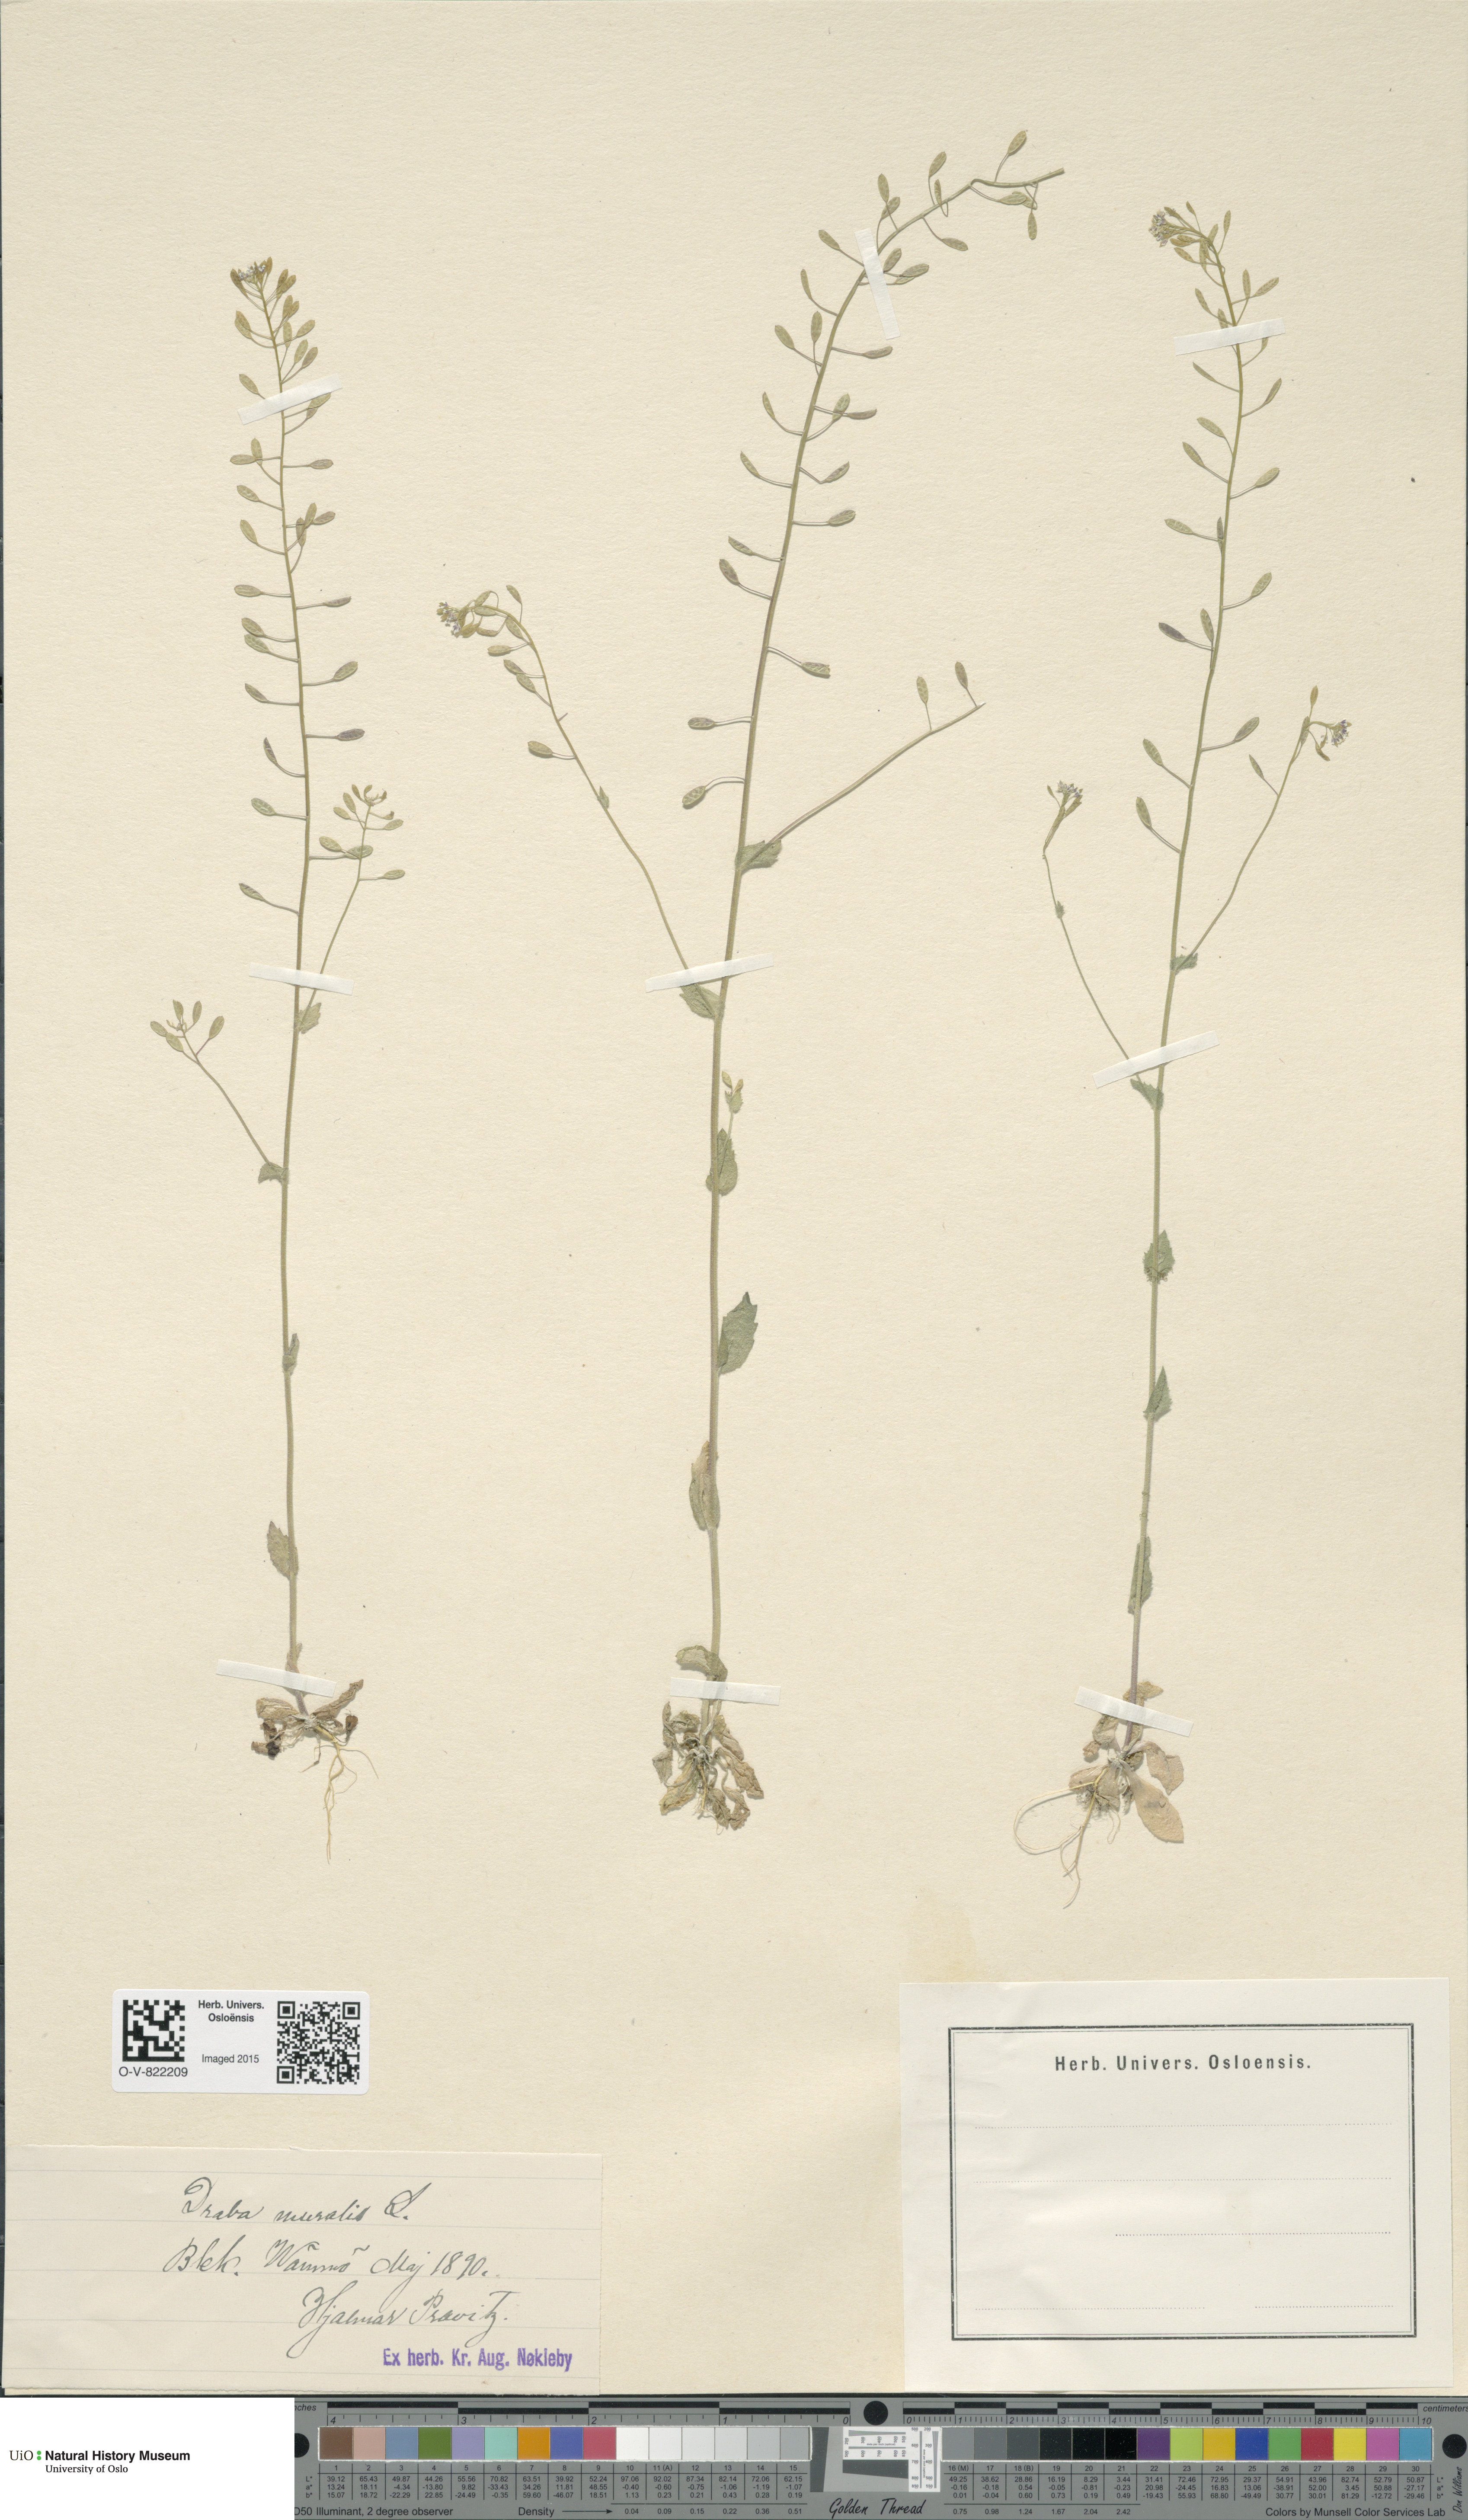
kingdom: Plantae
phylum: Tracheophyta
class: Magnoliopsida
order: Brassicales
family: Brassicaceae
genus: Drabella
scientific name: Drabella muralis
